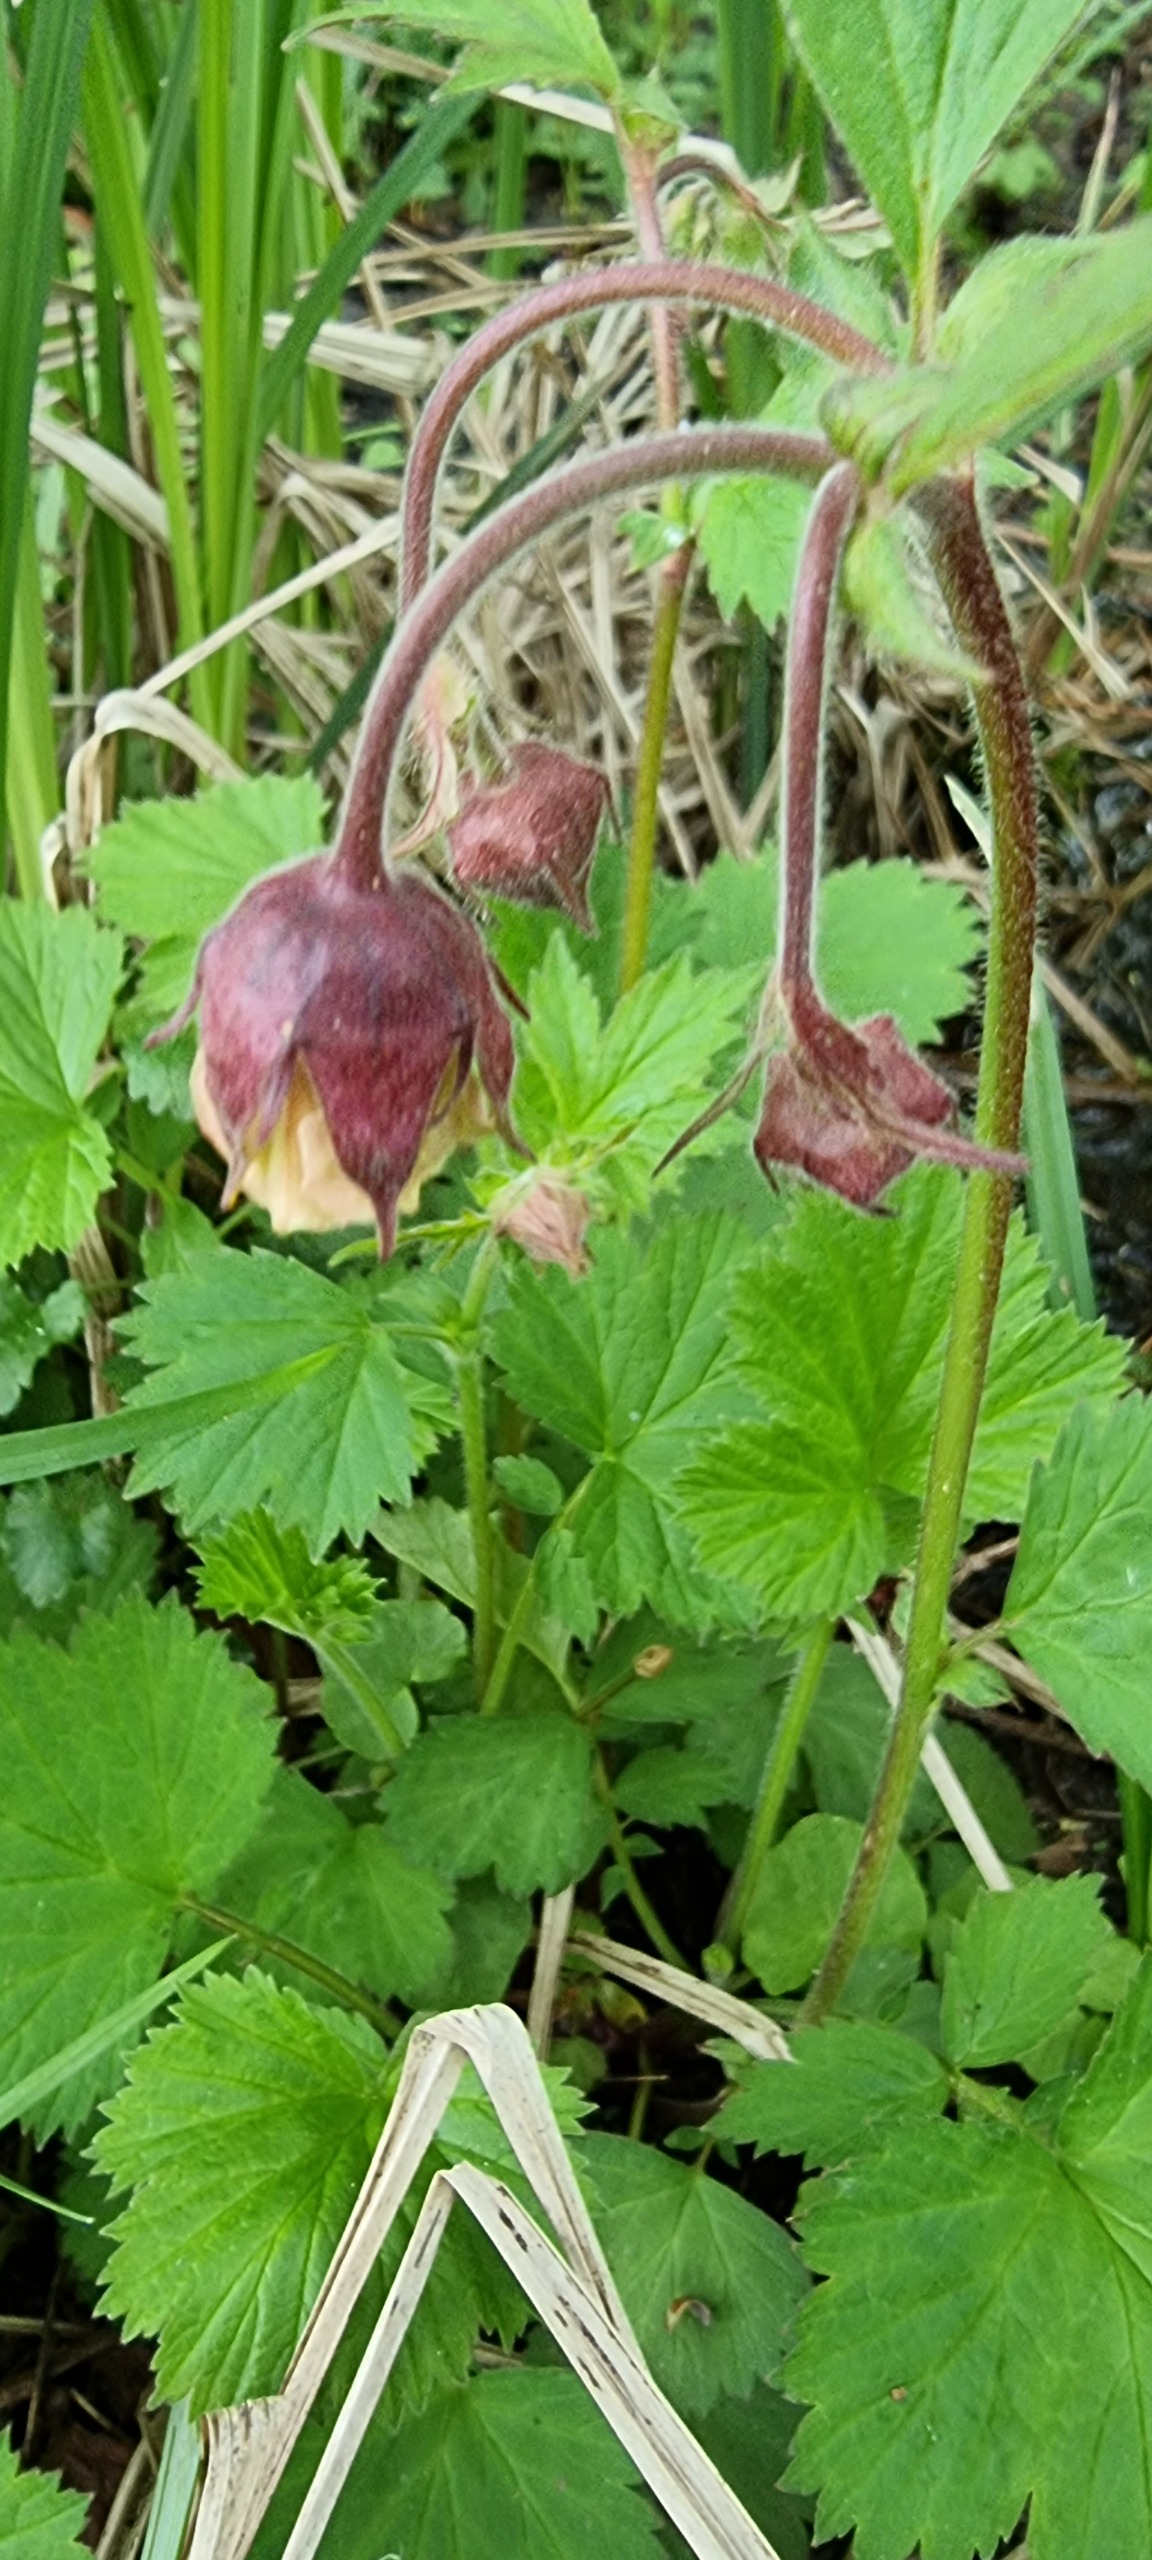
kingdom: Plantae
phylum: Tracheophyta
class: Magnoliopsida
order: Rosales
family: Rosaceae
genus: Geum
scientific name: Geum rivale
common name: Eng-nellikerod
